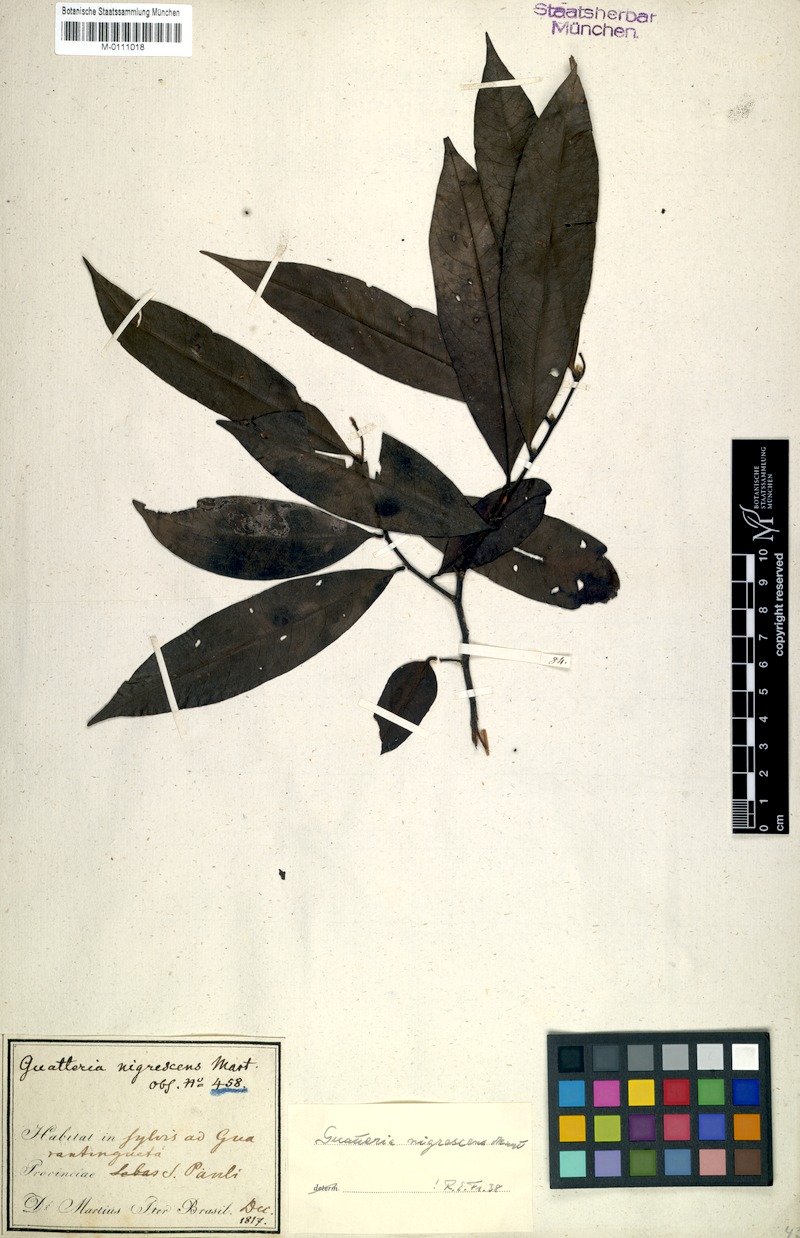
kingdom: Plantae
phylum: Tracheophyta
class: Magnoliopsida
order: Magnoliales
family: Annonaceae
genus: Guatteria
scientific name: Guatteria australis
